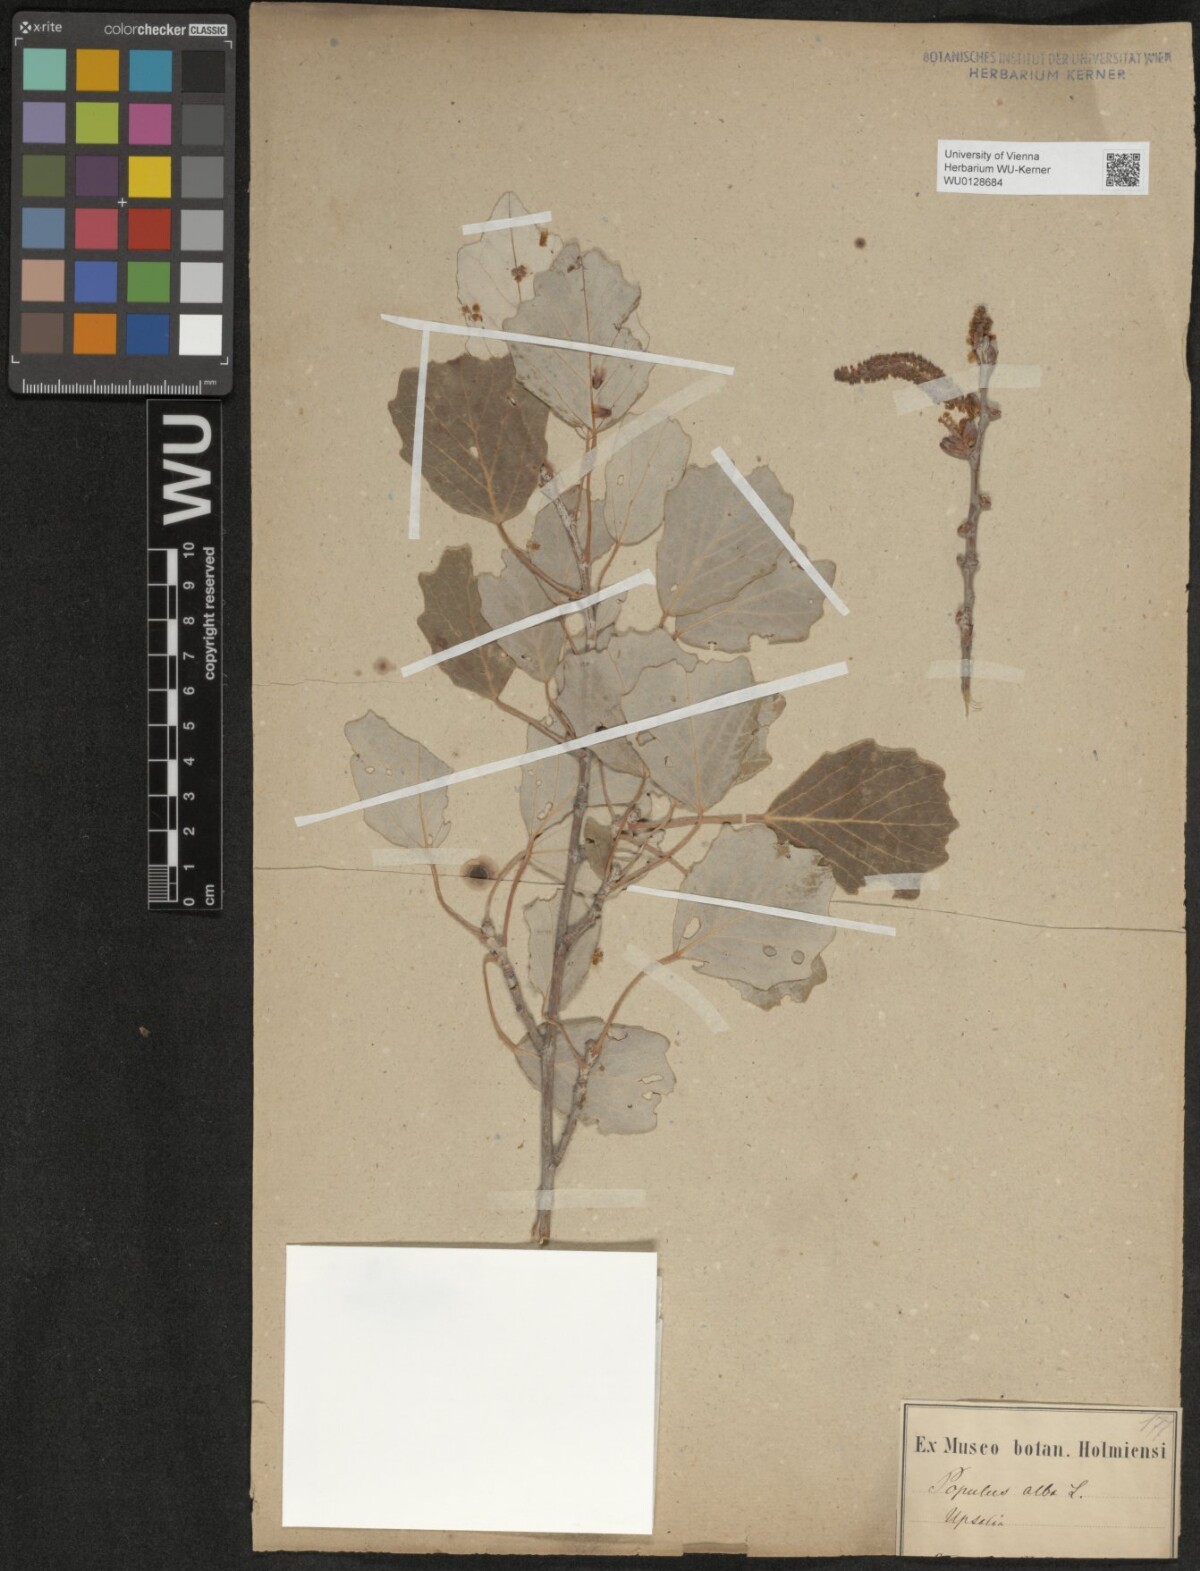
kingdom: Plantae
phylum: Tracheophyta
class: Magnoliopsida
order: Malpighiales
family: Salicaceae
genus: Populus
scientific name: Populus alba
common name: White poplar
